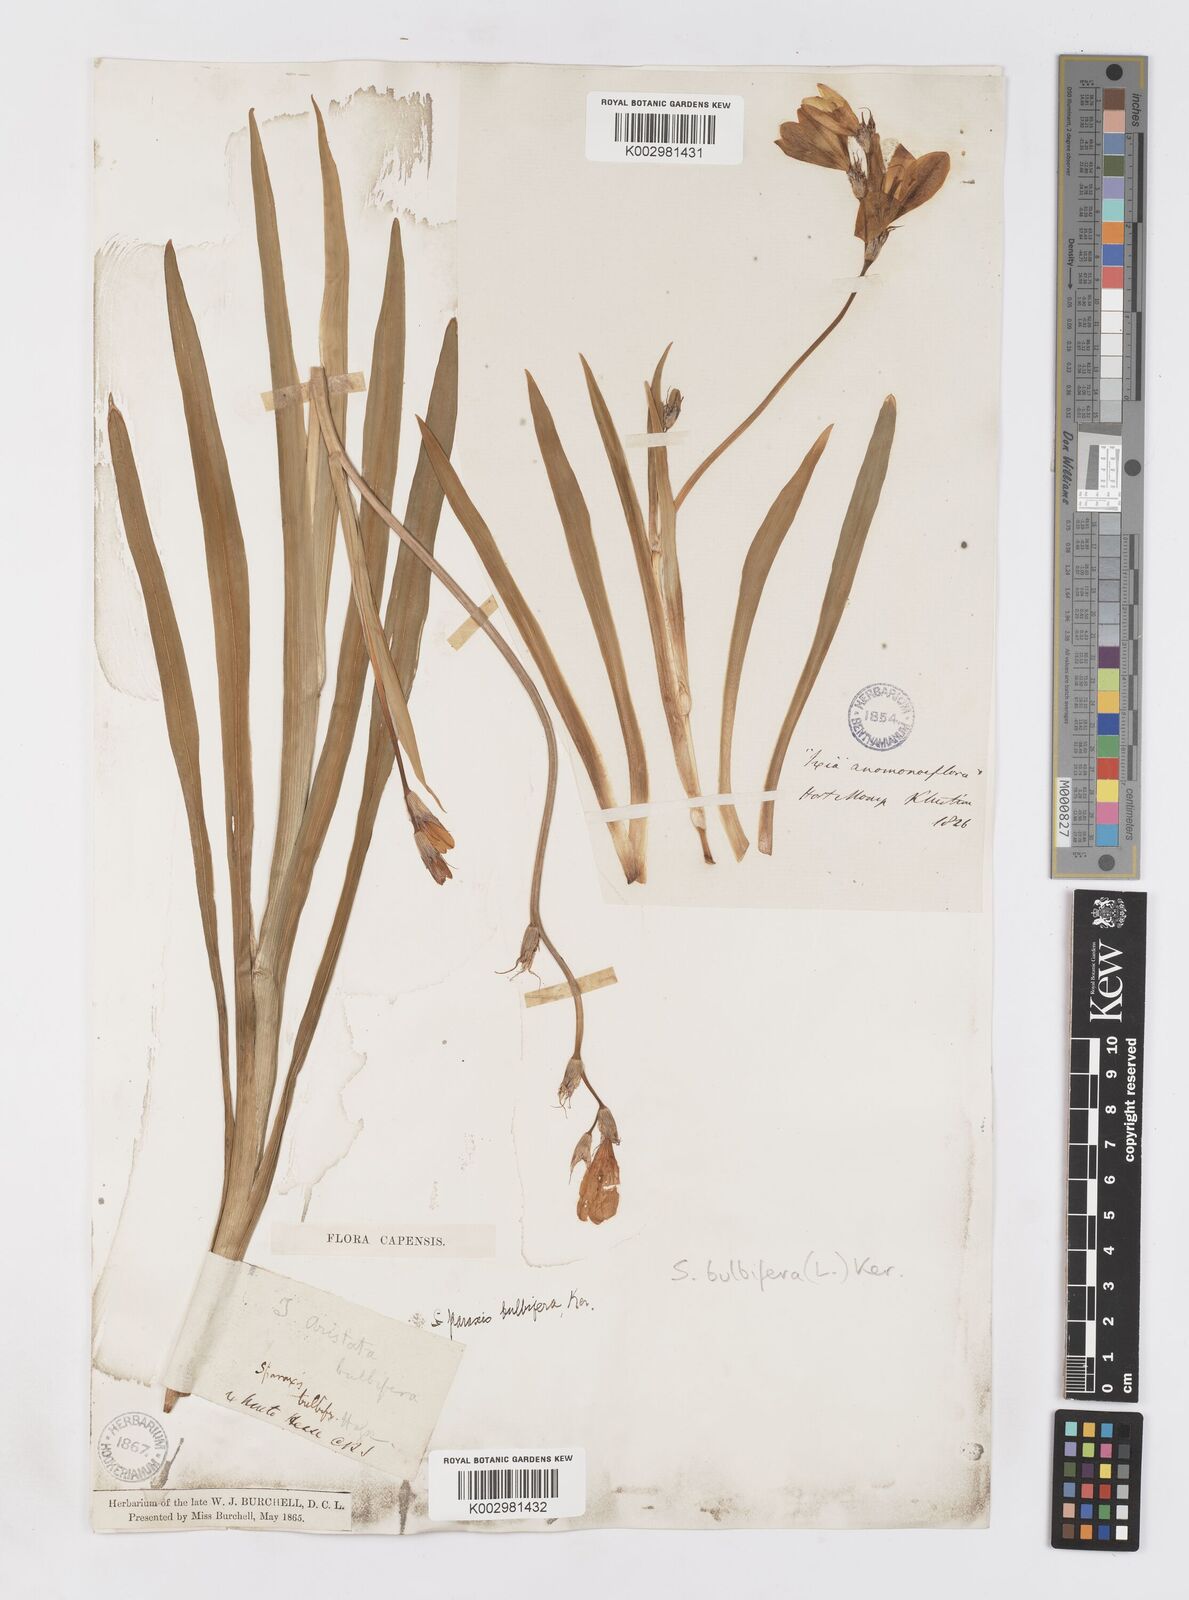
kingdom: Plantae
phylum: Tracheophyta
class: Liliopsida
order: Asparagales
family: Iridaceae
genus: Sparaxis
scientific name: Sparaxis bulbifera
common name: Harlequin-flower
